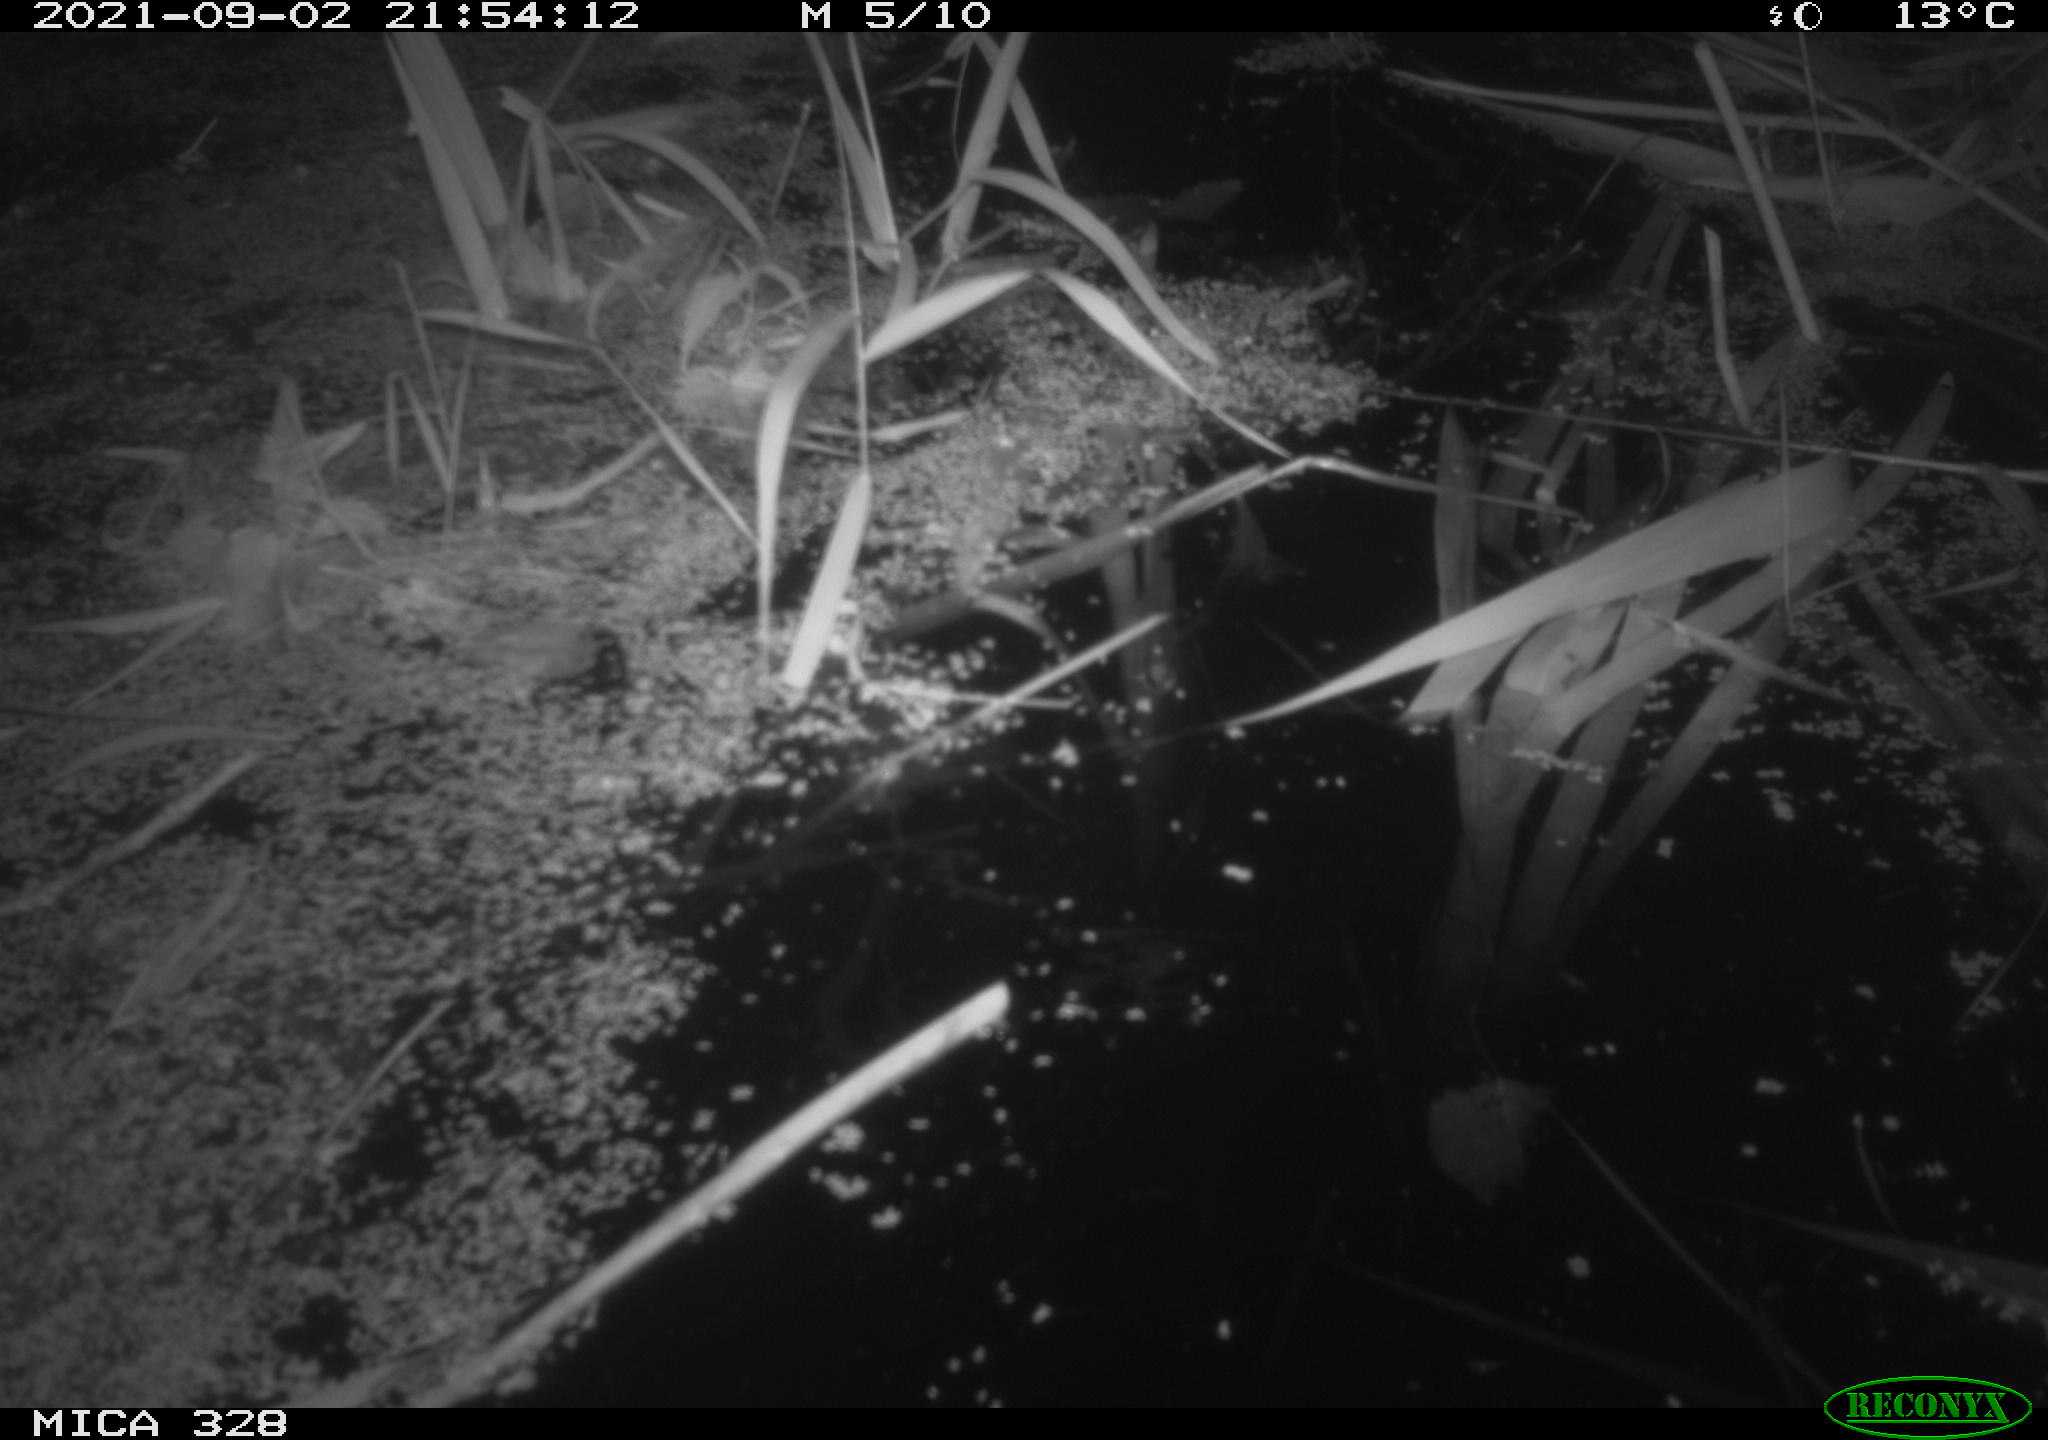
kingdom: Animalia
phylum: Chordata
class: Mammalia
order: Rodentia
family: Cricetidae
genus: Ondatra
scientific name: Ondatra zibethicus
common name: Muskrat
